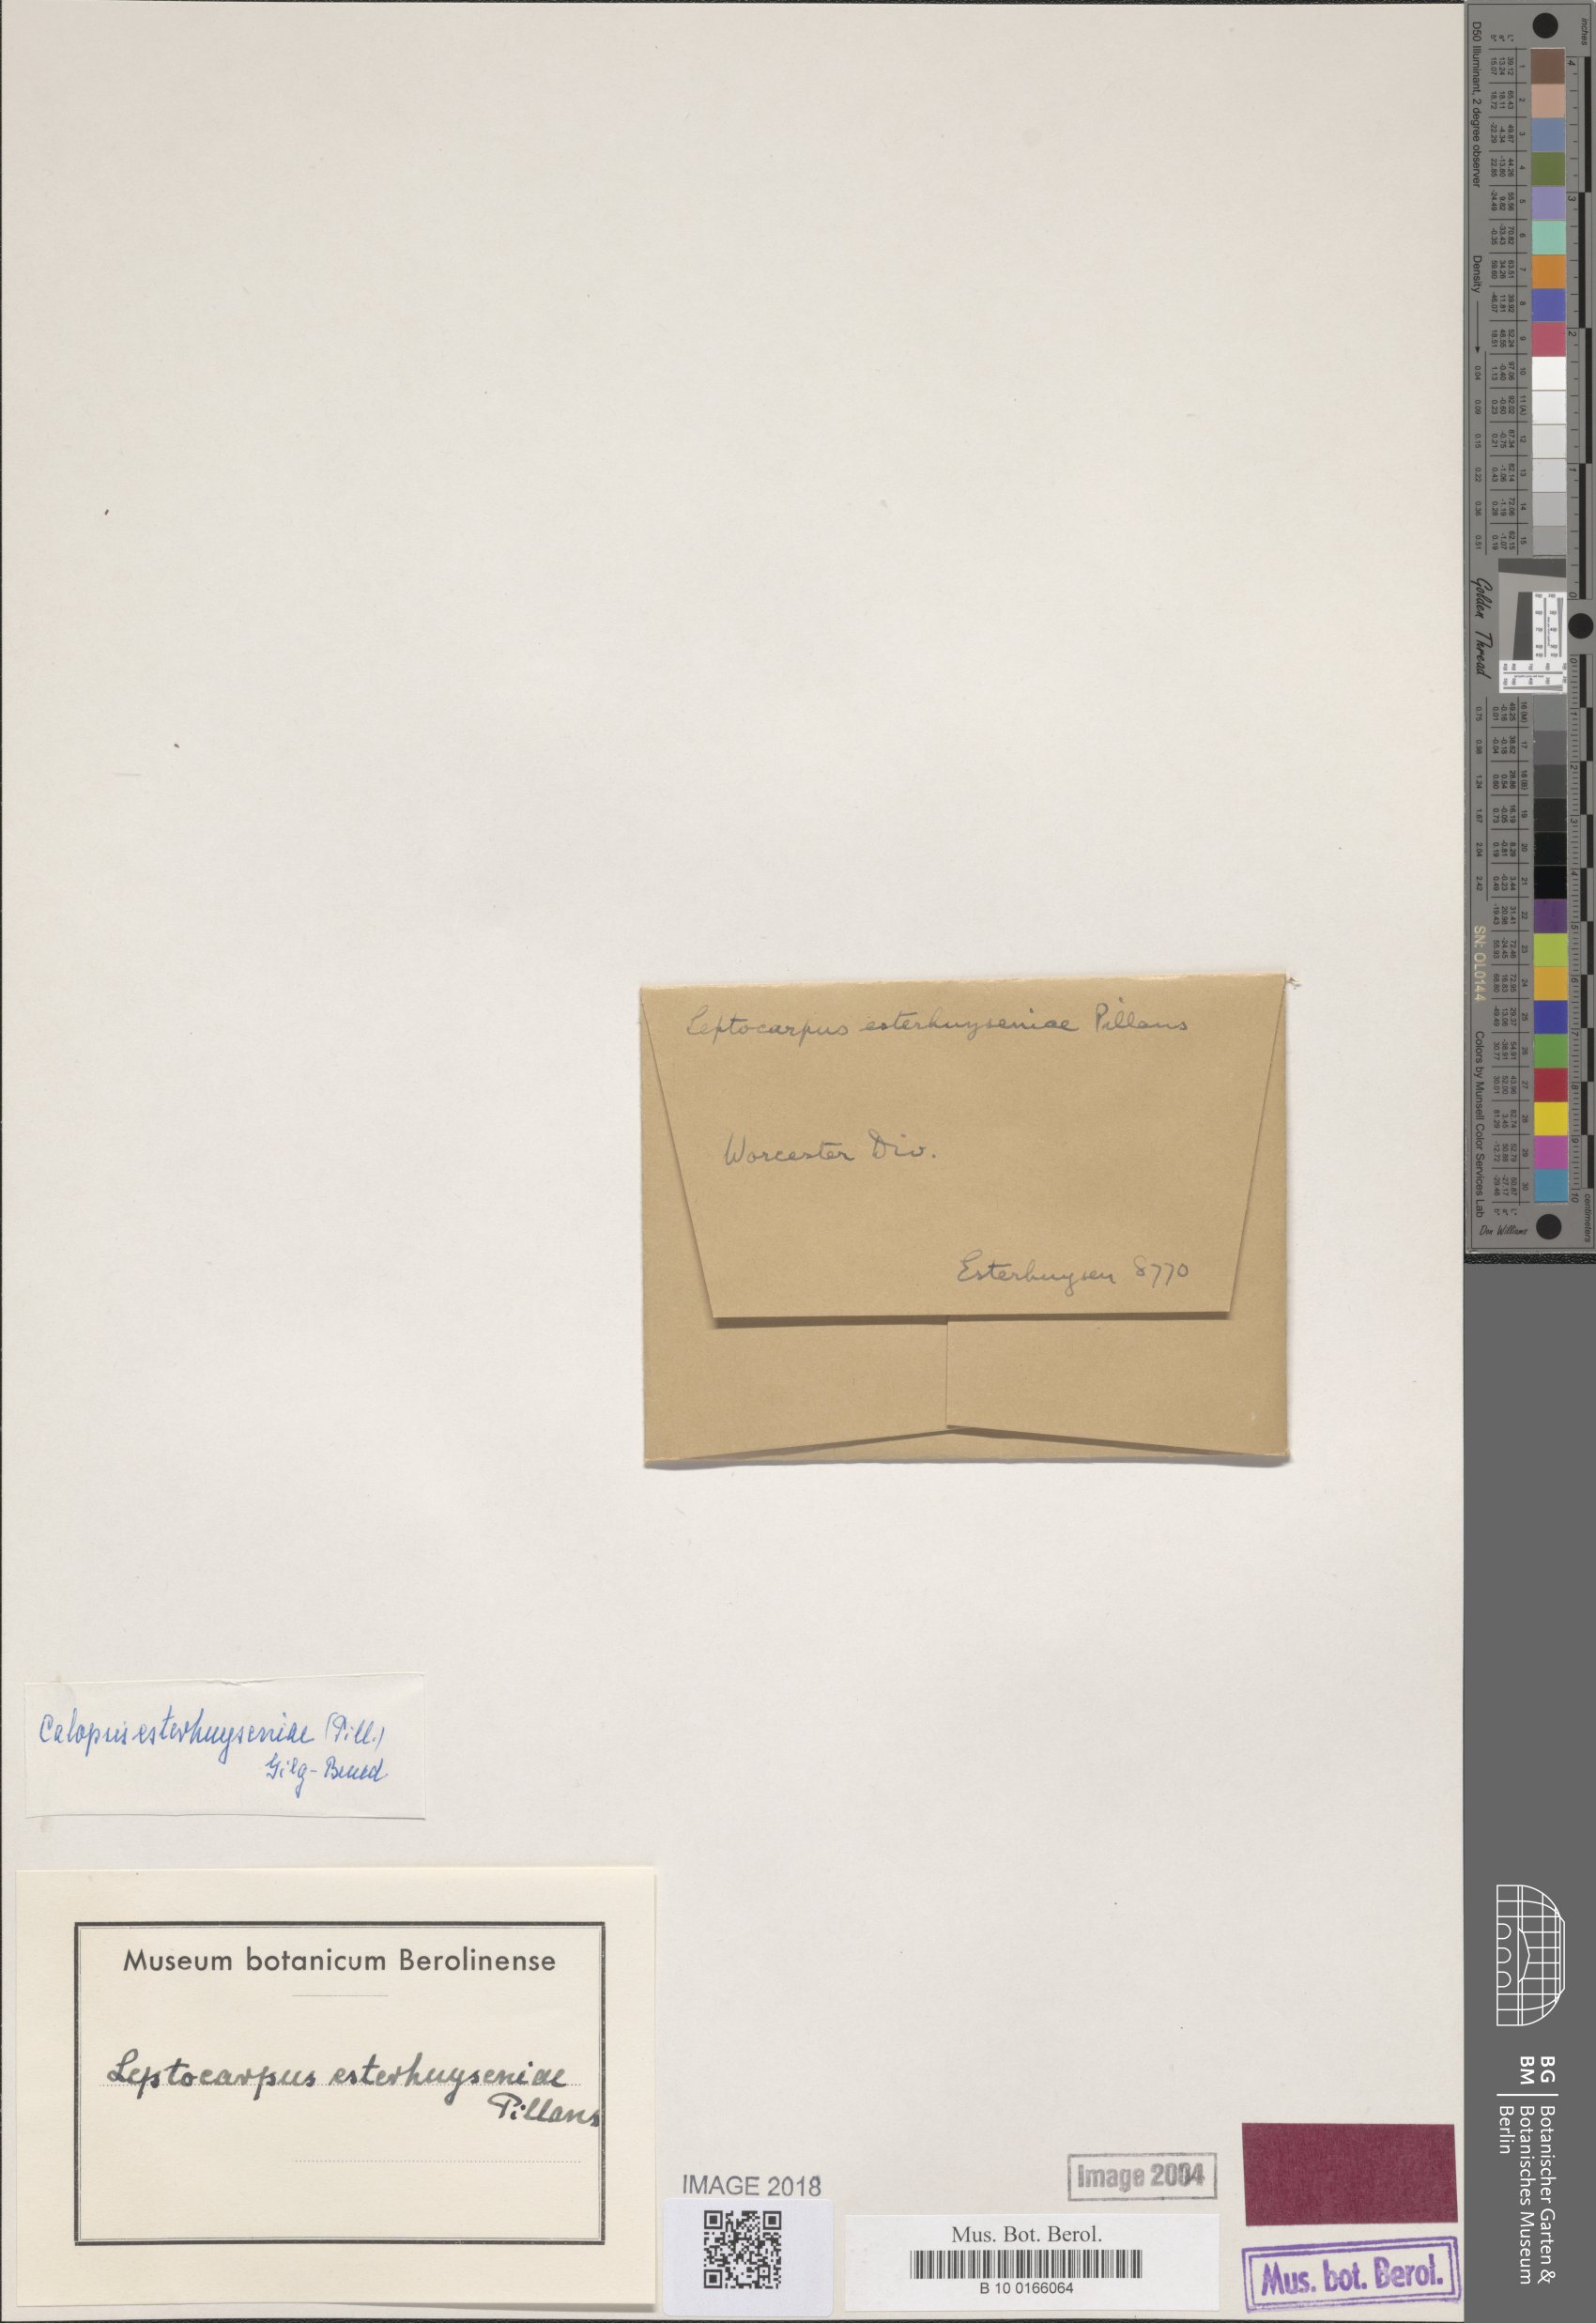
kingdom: Plantae
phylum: Tracheophyta
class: Liliopsida
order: Poales
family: Restionaceae
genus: Restio
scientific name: Restio distylis
